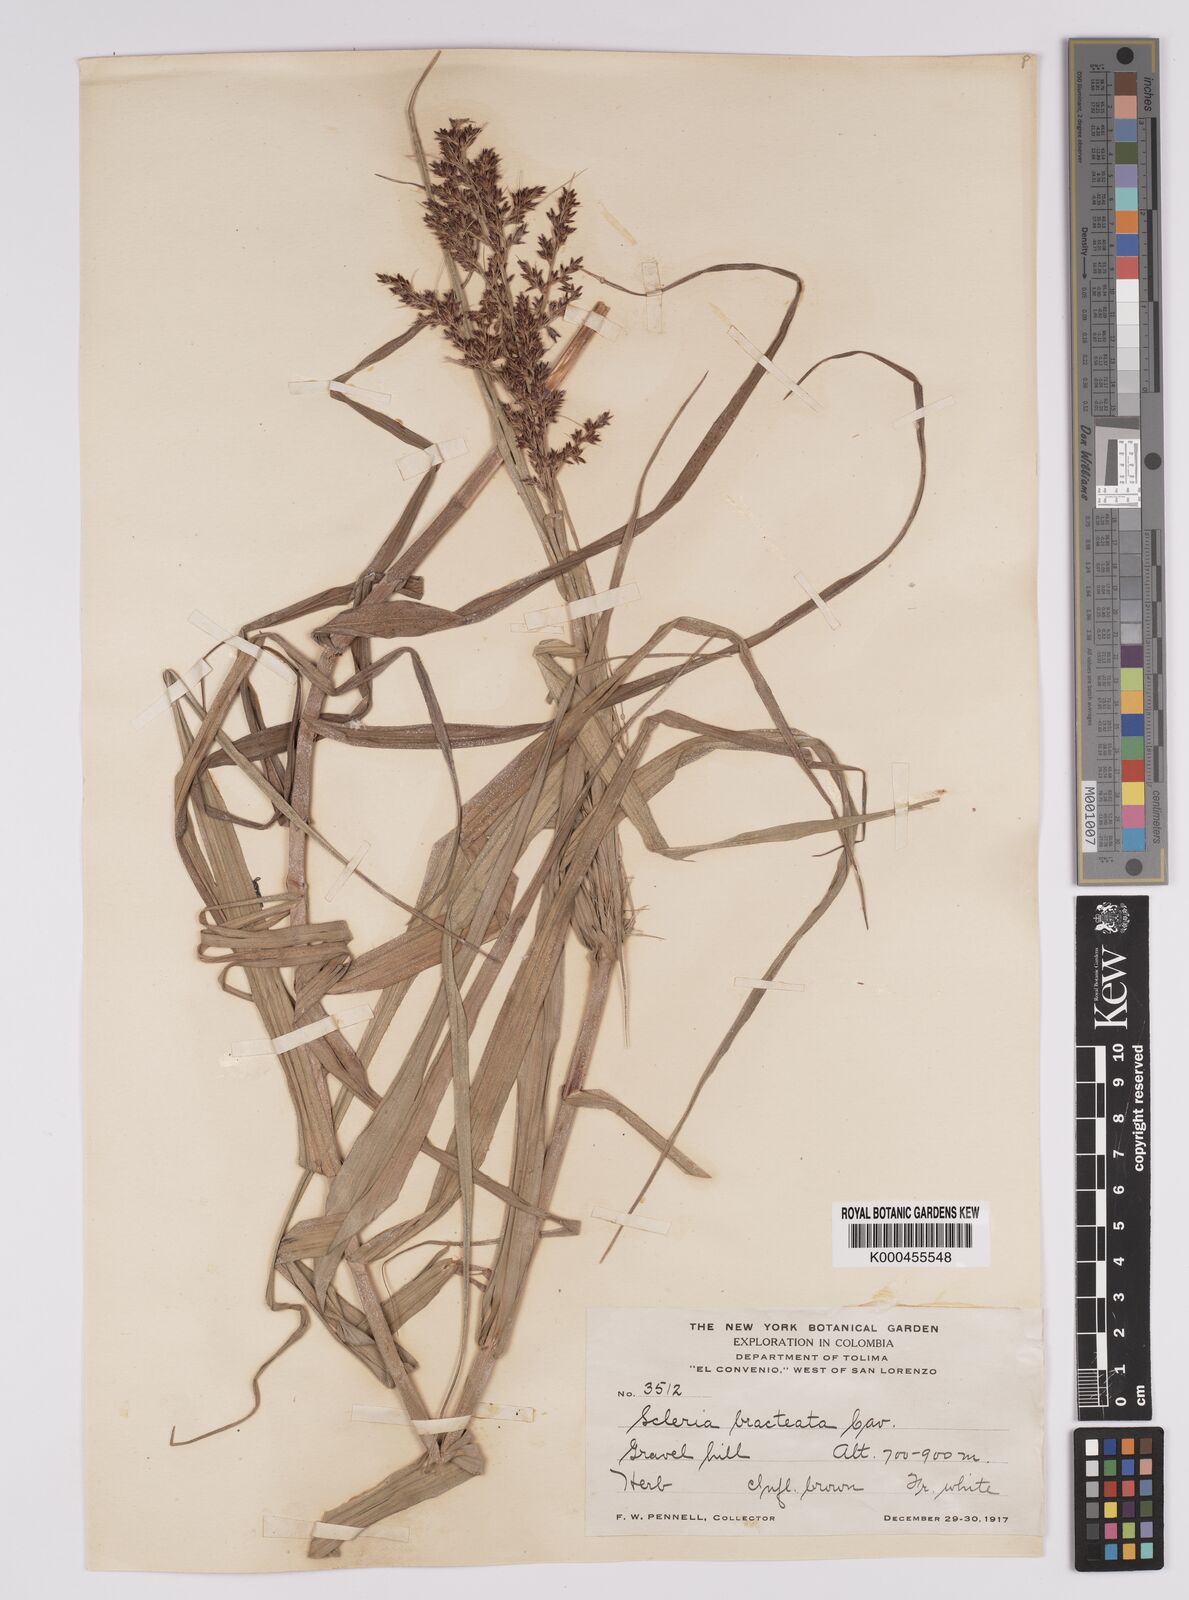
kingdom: Plantae
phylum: Tracheophyta
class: Liliopsida
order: Poales
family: Cyperaceae
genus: Scleria
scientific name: Scleria bracteata
